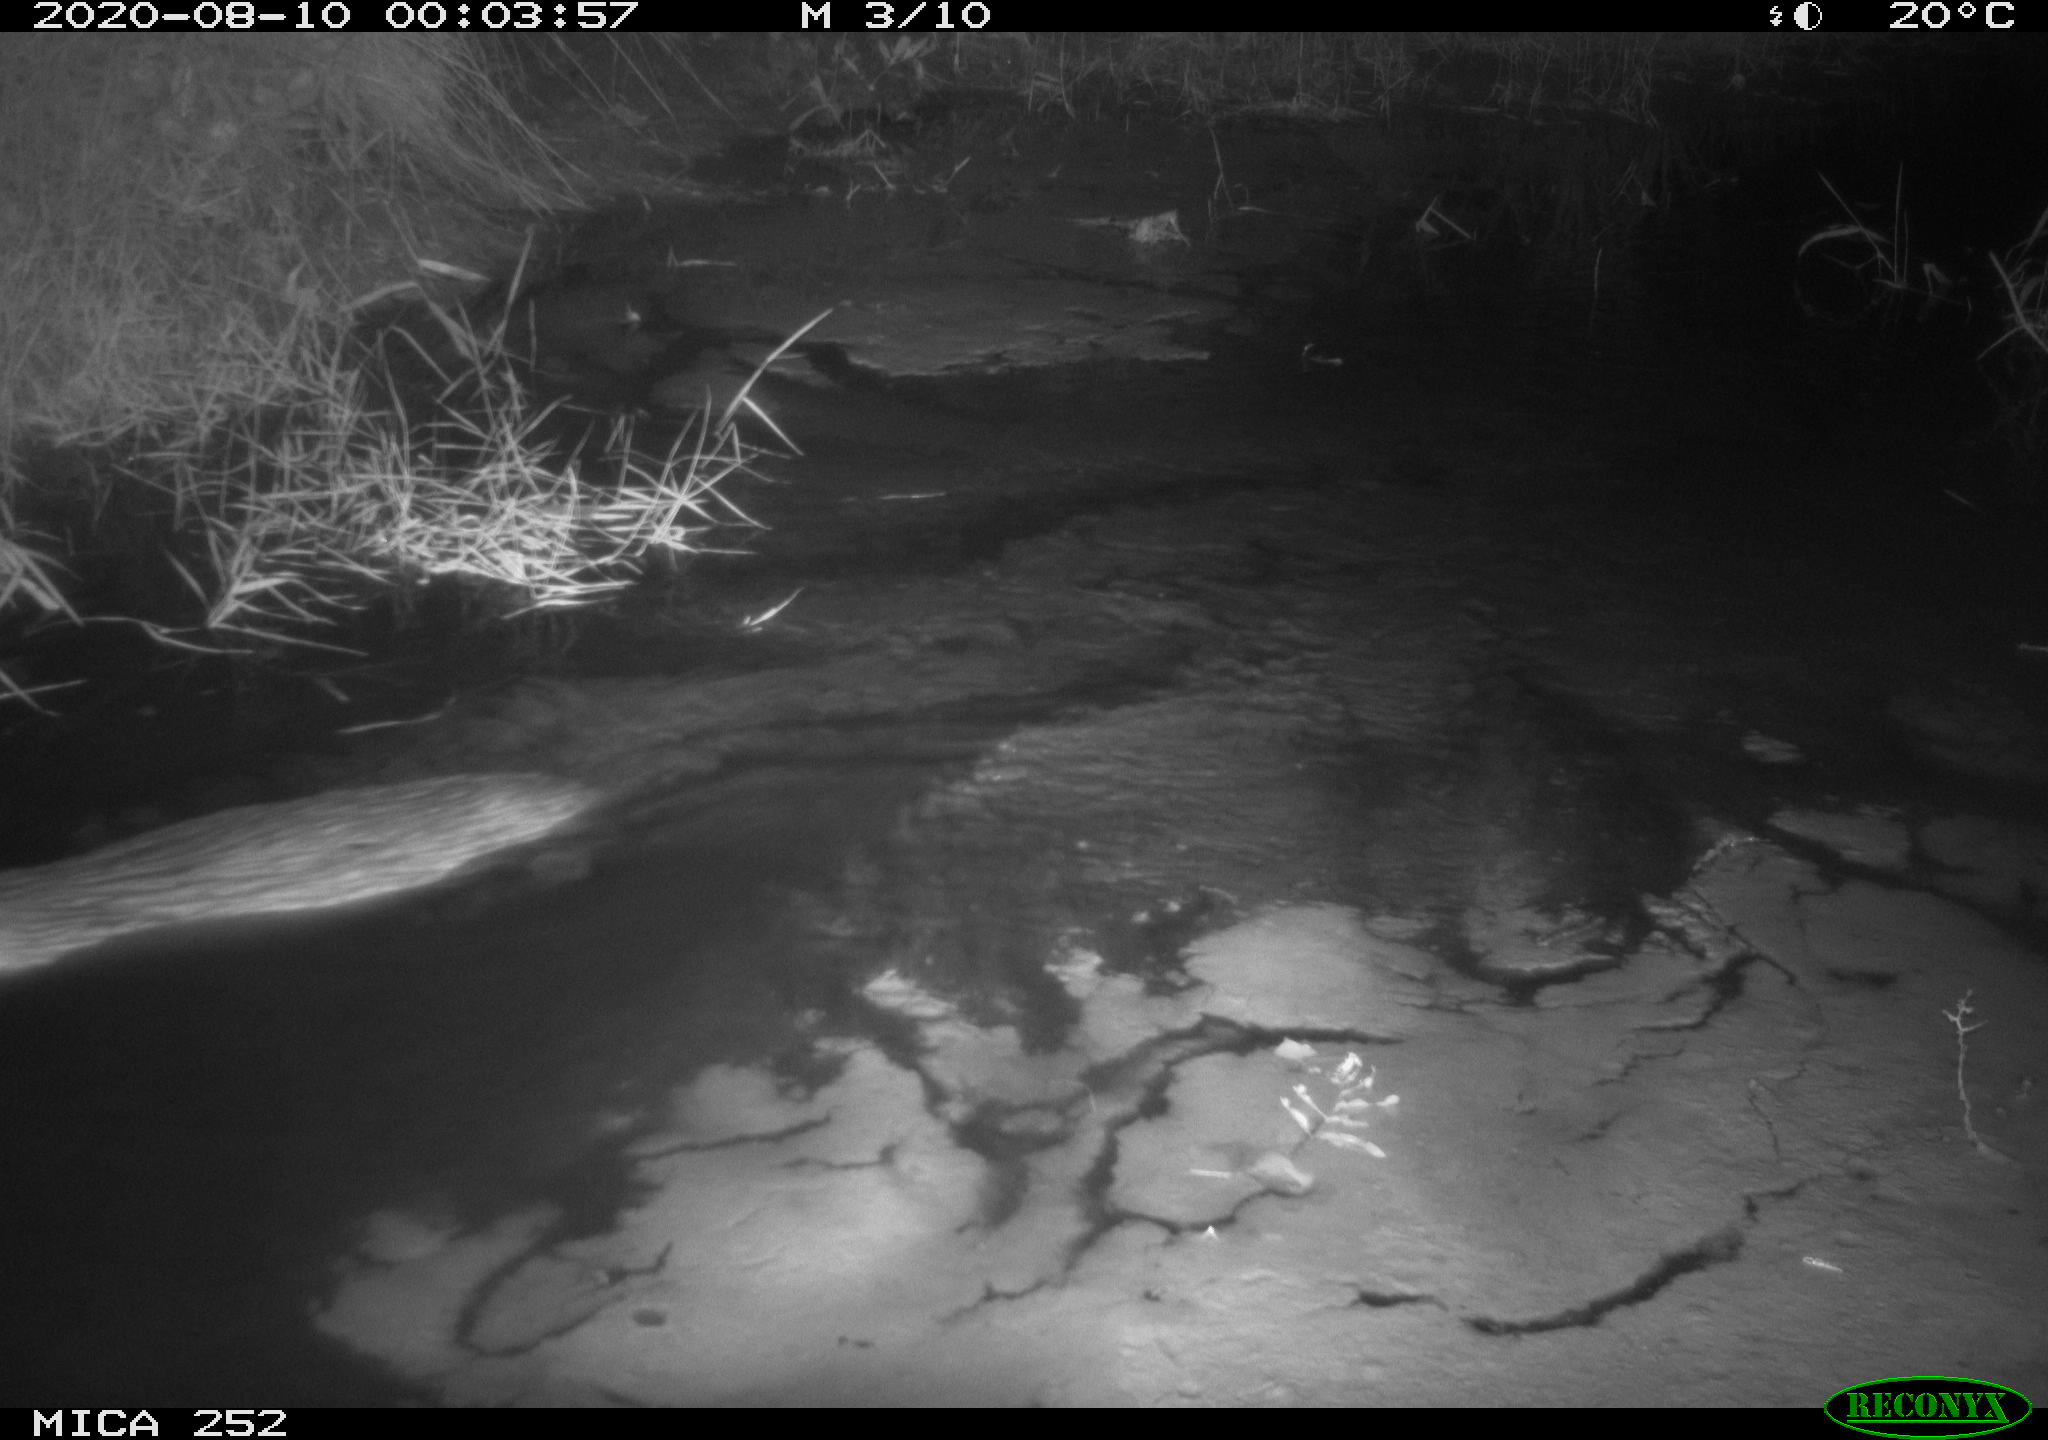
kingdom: Animalia
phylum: Chordata
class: Mammalia
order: Rodentia
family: Castoridae
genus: Castor
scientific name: Castor fiber
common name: Eurasian beaver
